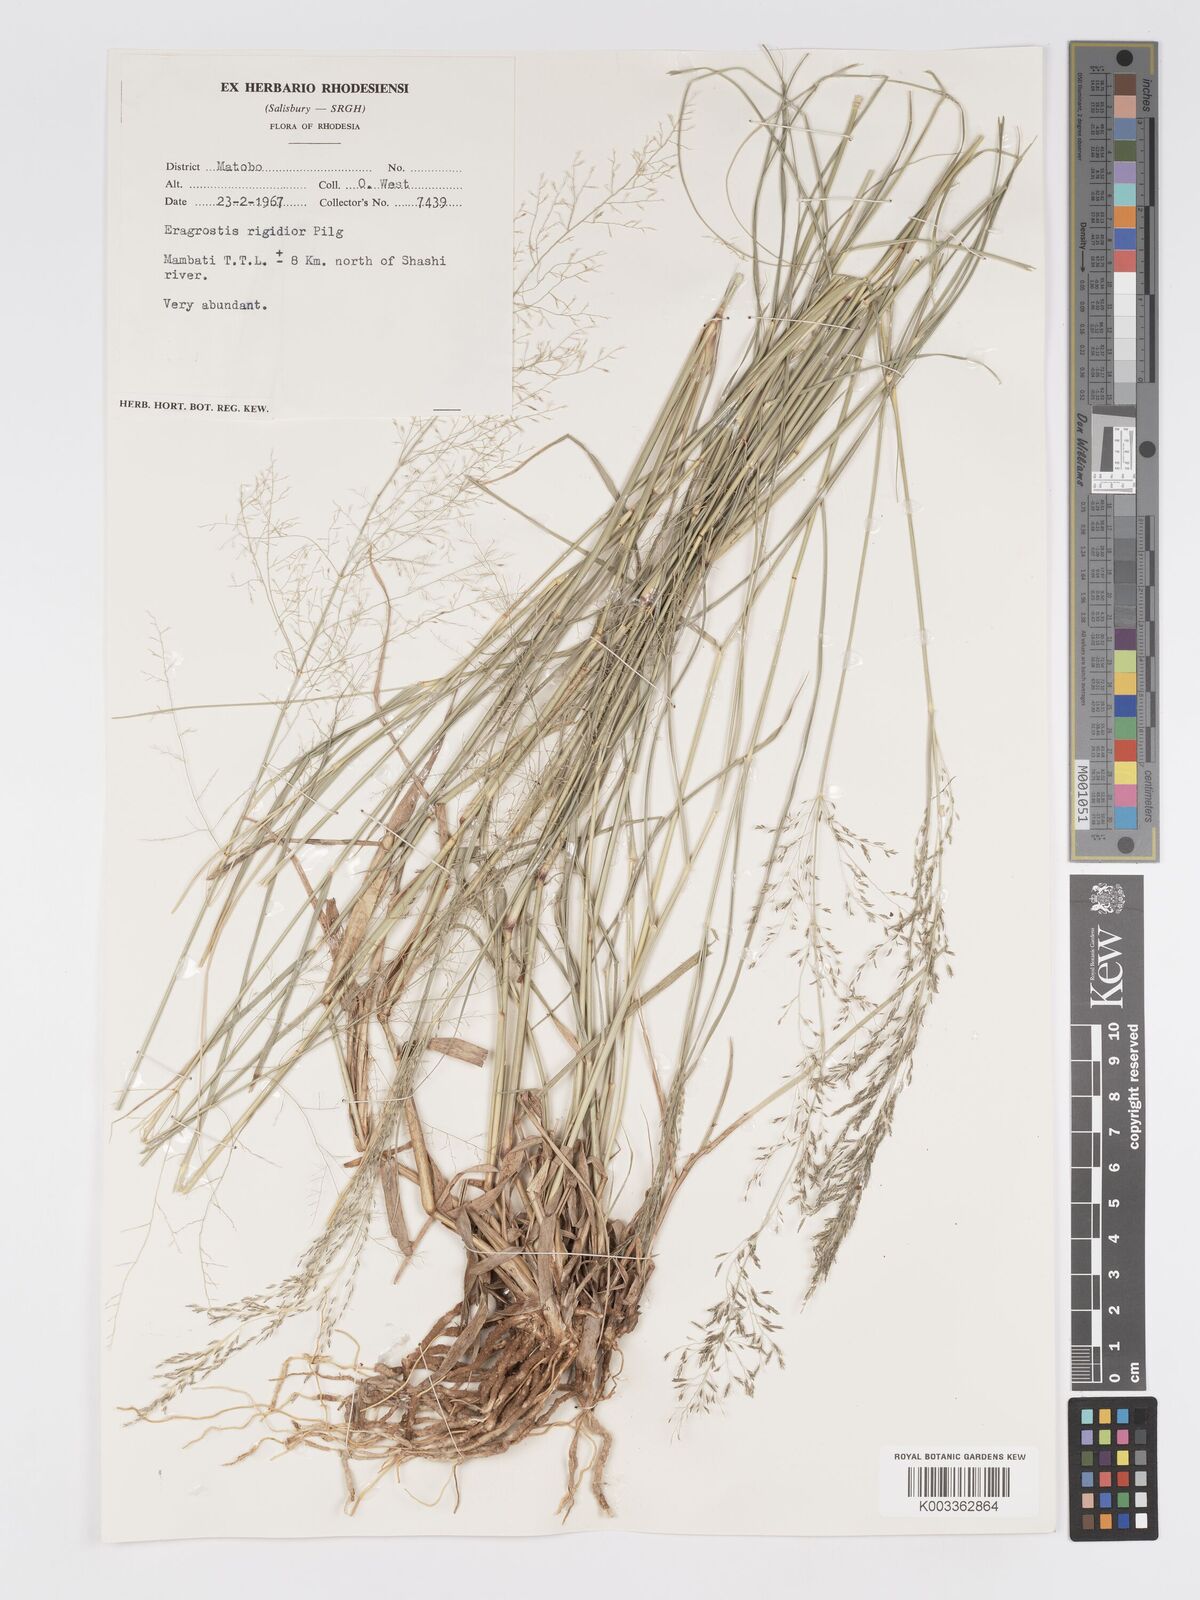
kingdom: Plantae
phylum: Tracheophyta
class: Liliopsida
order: Poales
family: Poaceae
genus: Eragrostis
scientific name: Eragrostis cylindriflora
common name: Cylinderflower lovegrass
